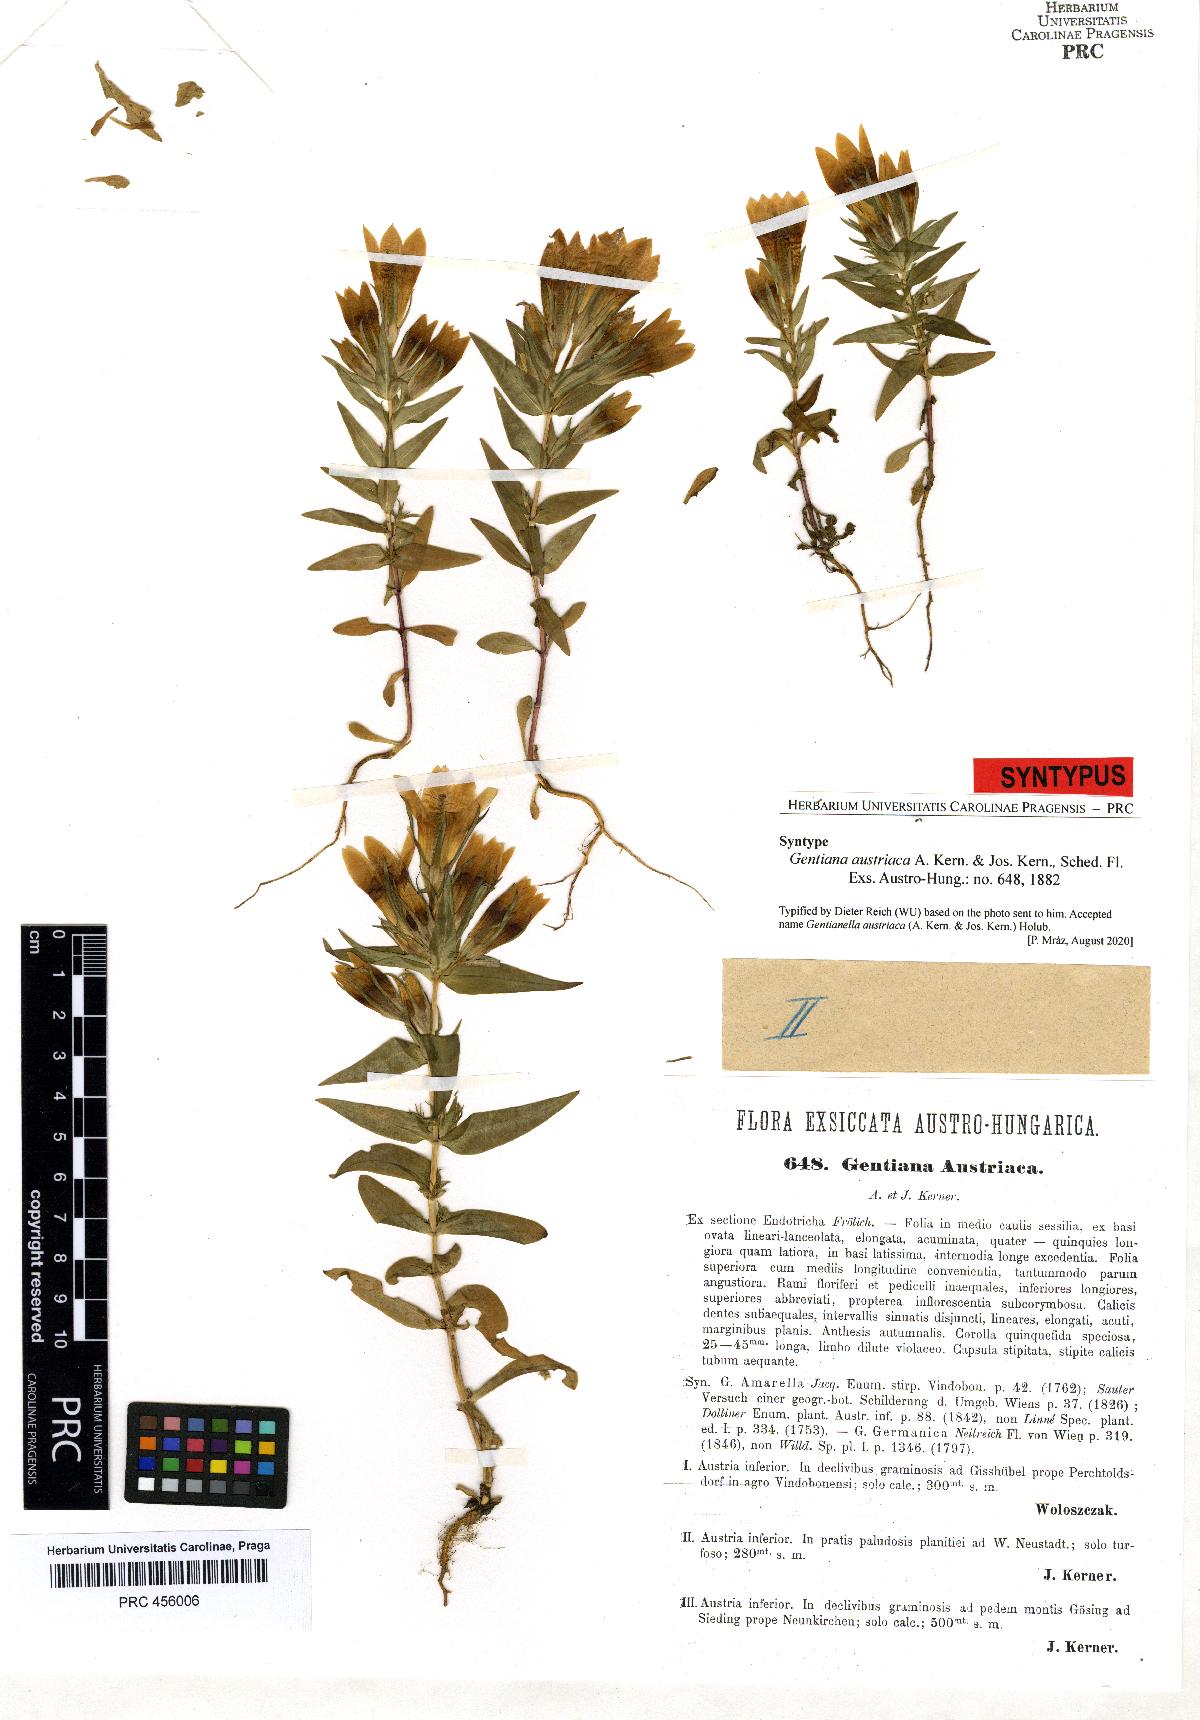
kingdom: Plantae
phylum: Tracheophyta
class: Magnoliopsida
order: Gentianales
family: Gentianaceae
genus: Gentianella
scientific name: Gentianella austriaca
